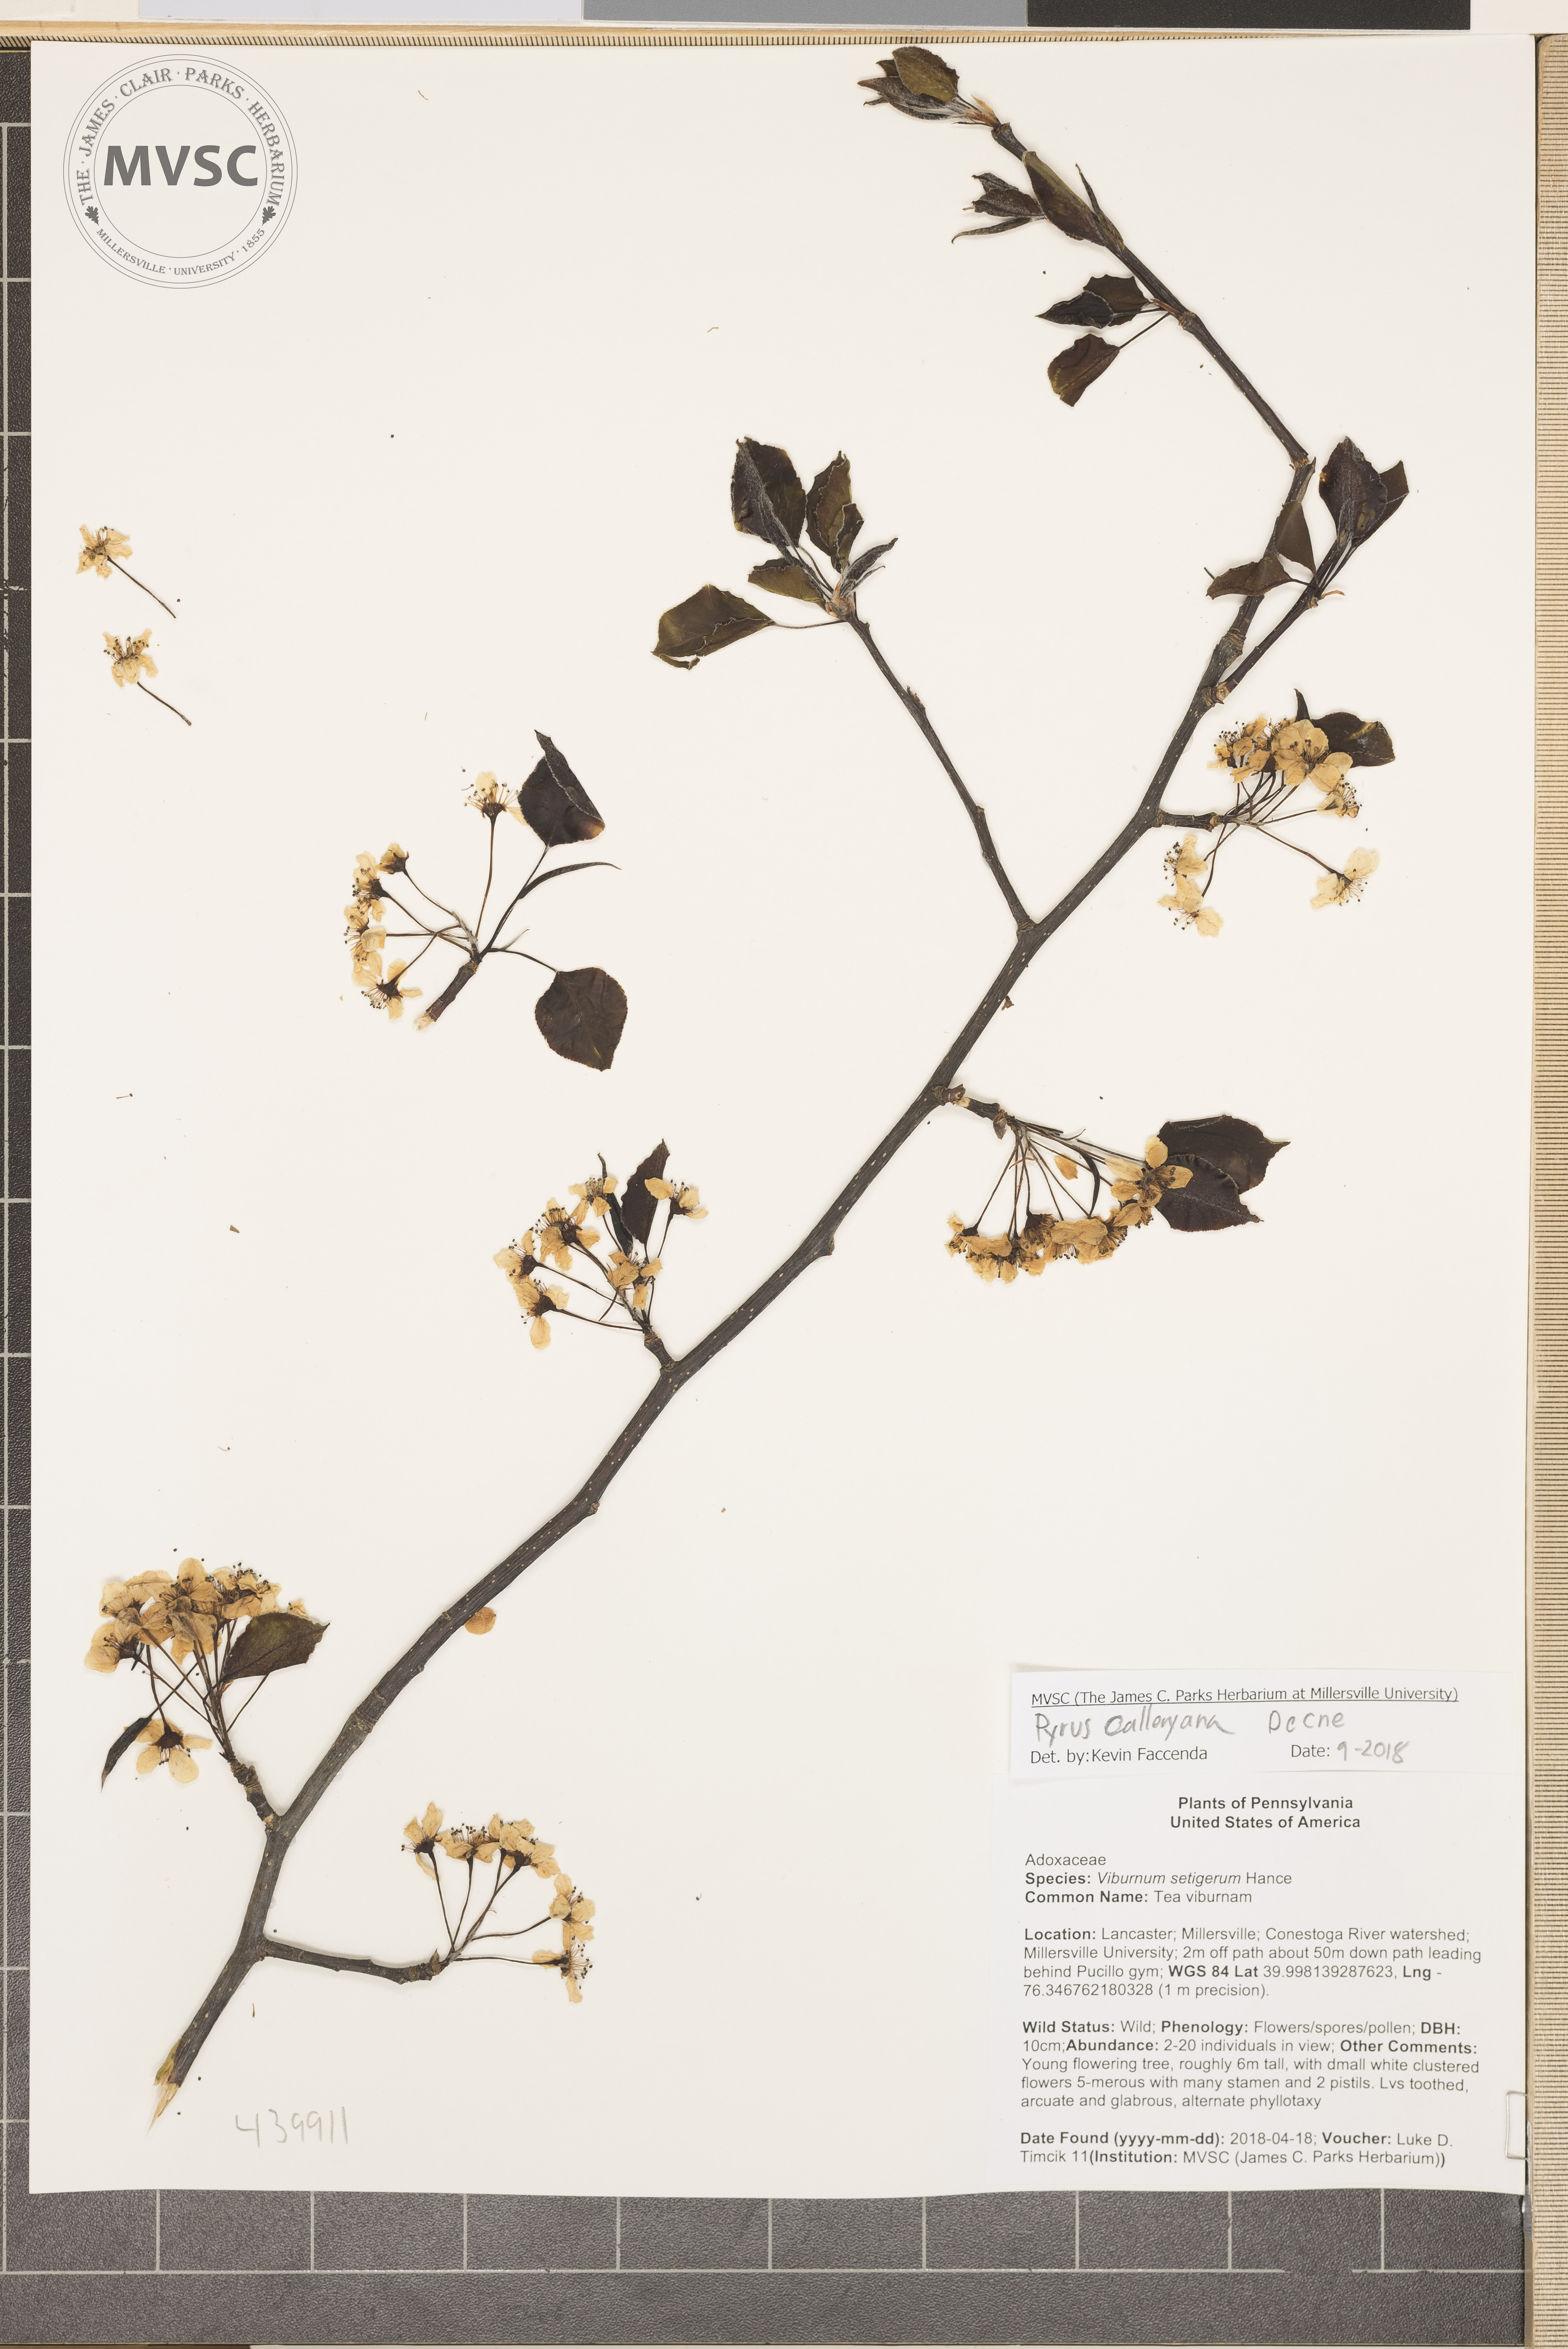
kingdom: Plantae
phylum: Tracheophyta
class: Magnoliopsida
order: Rosales
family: Rosaceae
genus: Pyrus
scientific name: Pyrus calleryana
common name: Callery pear
